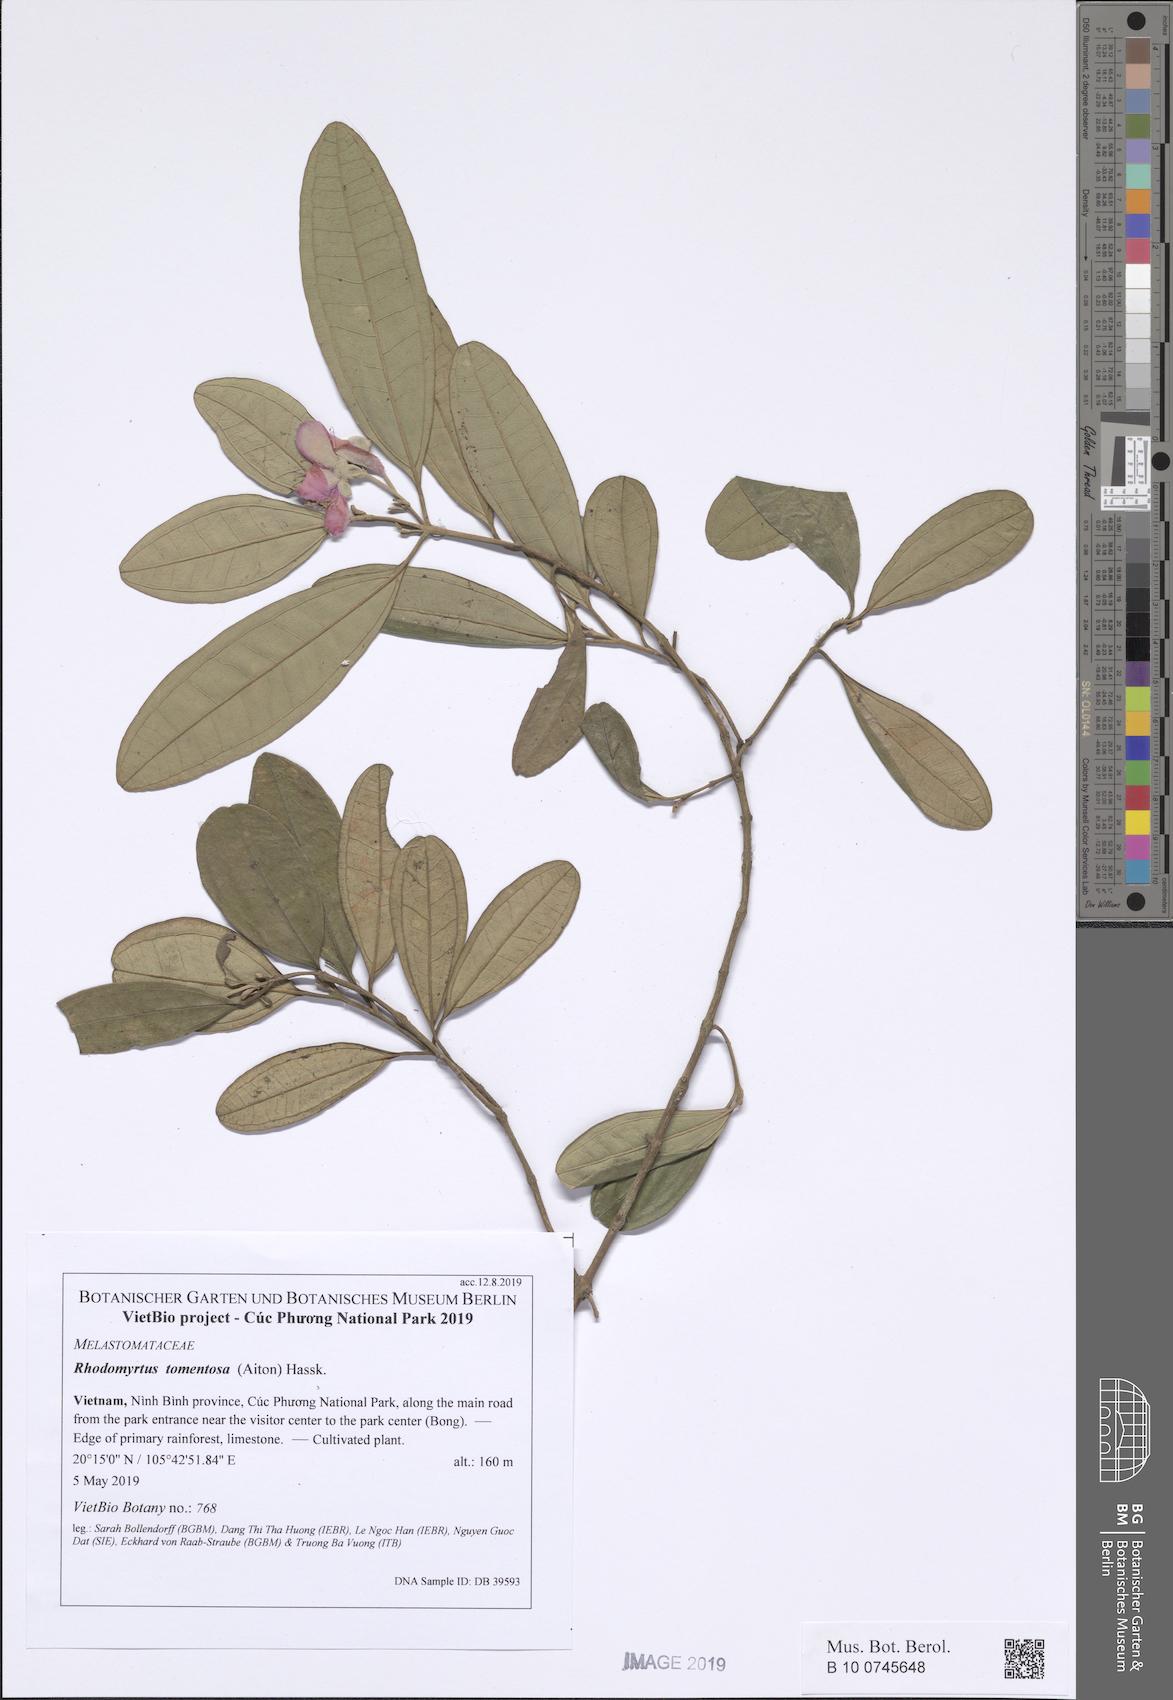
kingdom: Plantae
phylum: Tracheophyta
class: Magnoliopsida
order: Myrtales
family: Myrtaceae
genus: Rhodomyrtus
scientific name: Rhodomyrtus tomentosa
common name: Rose myrtle
